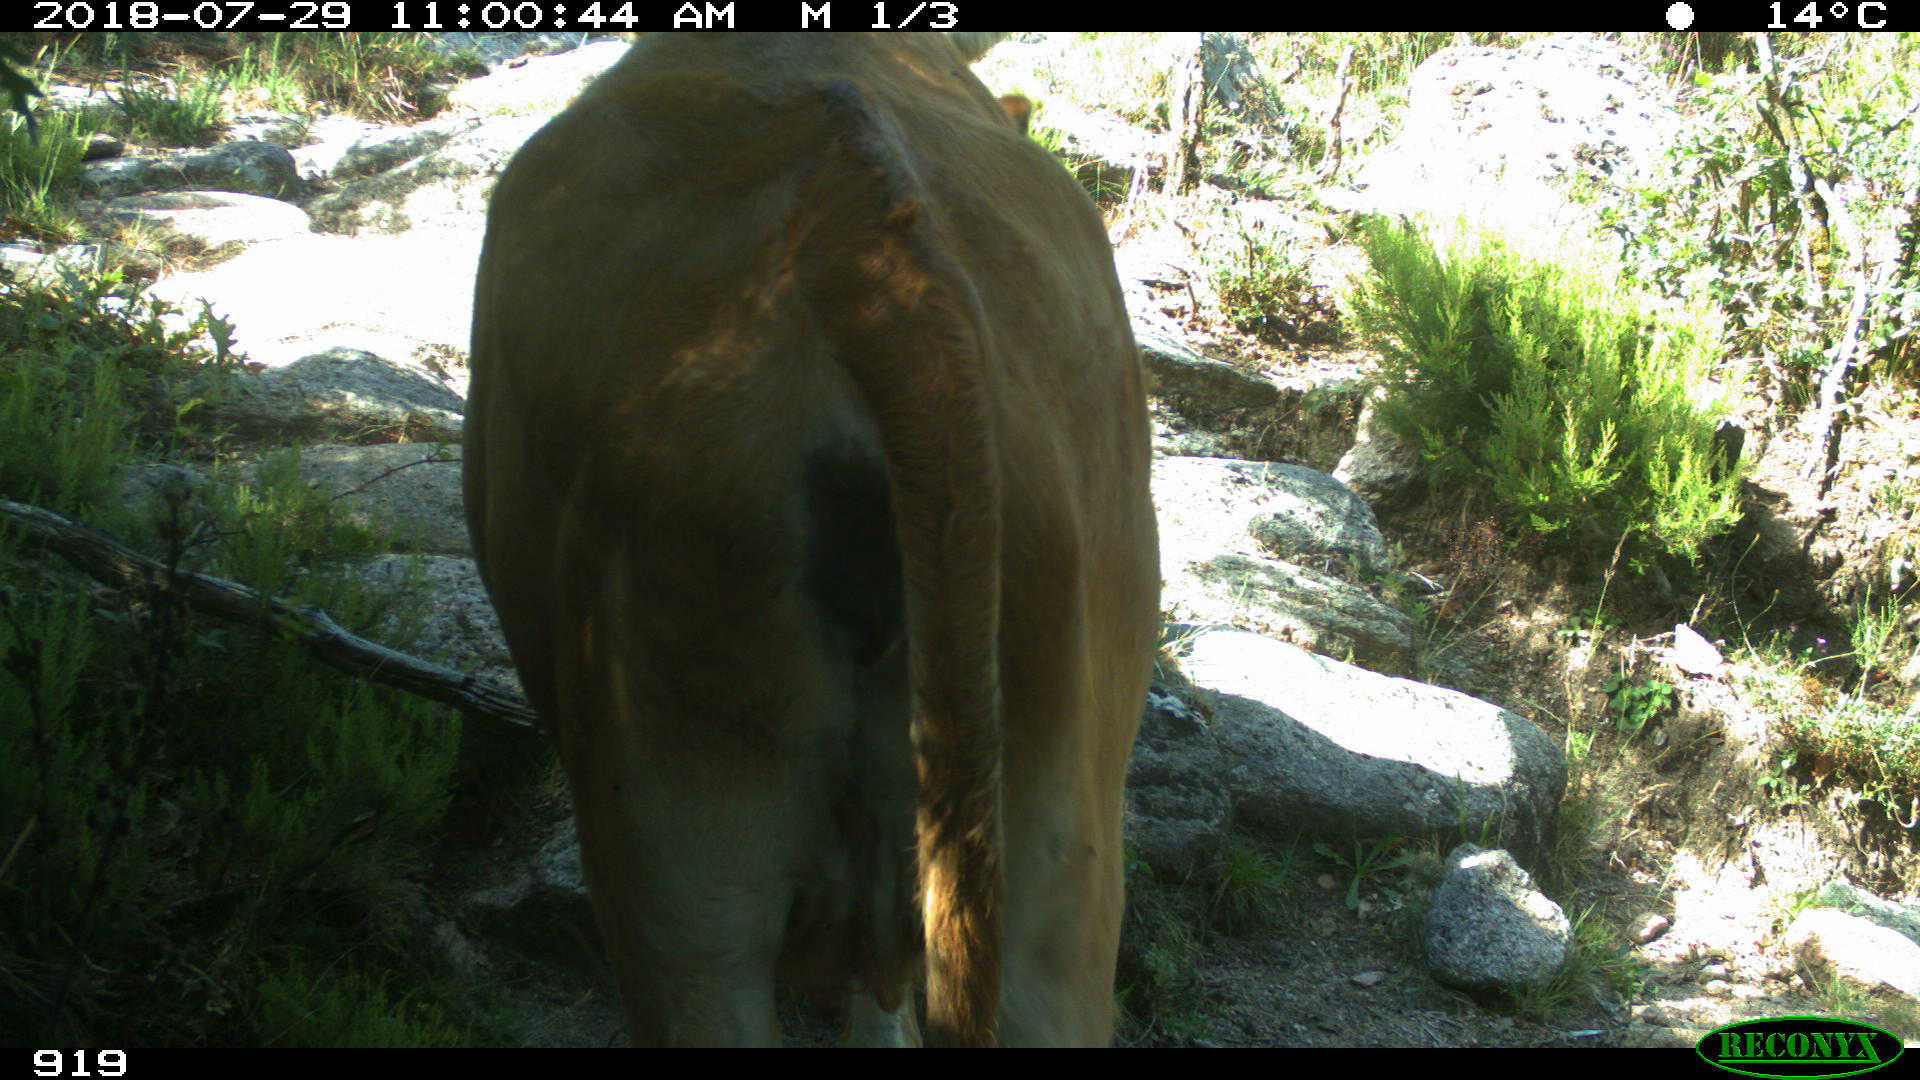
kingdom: Animalia
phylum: Chordata
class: Mammalia
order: Artiodactyla
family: Bovidae
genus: Bos
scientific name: Bos taurus
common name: Domesticated cattle
